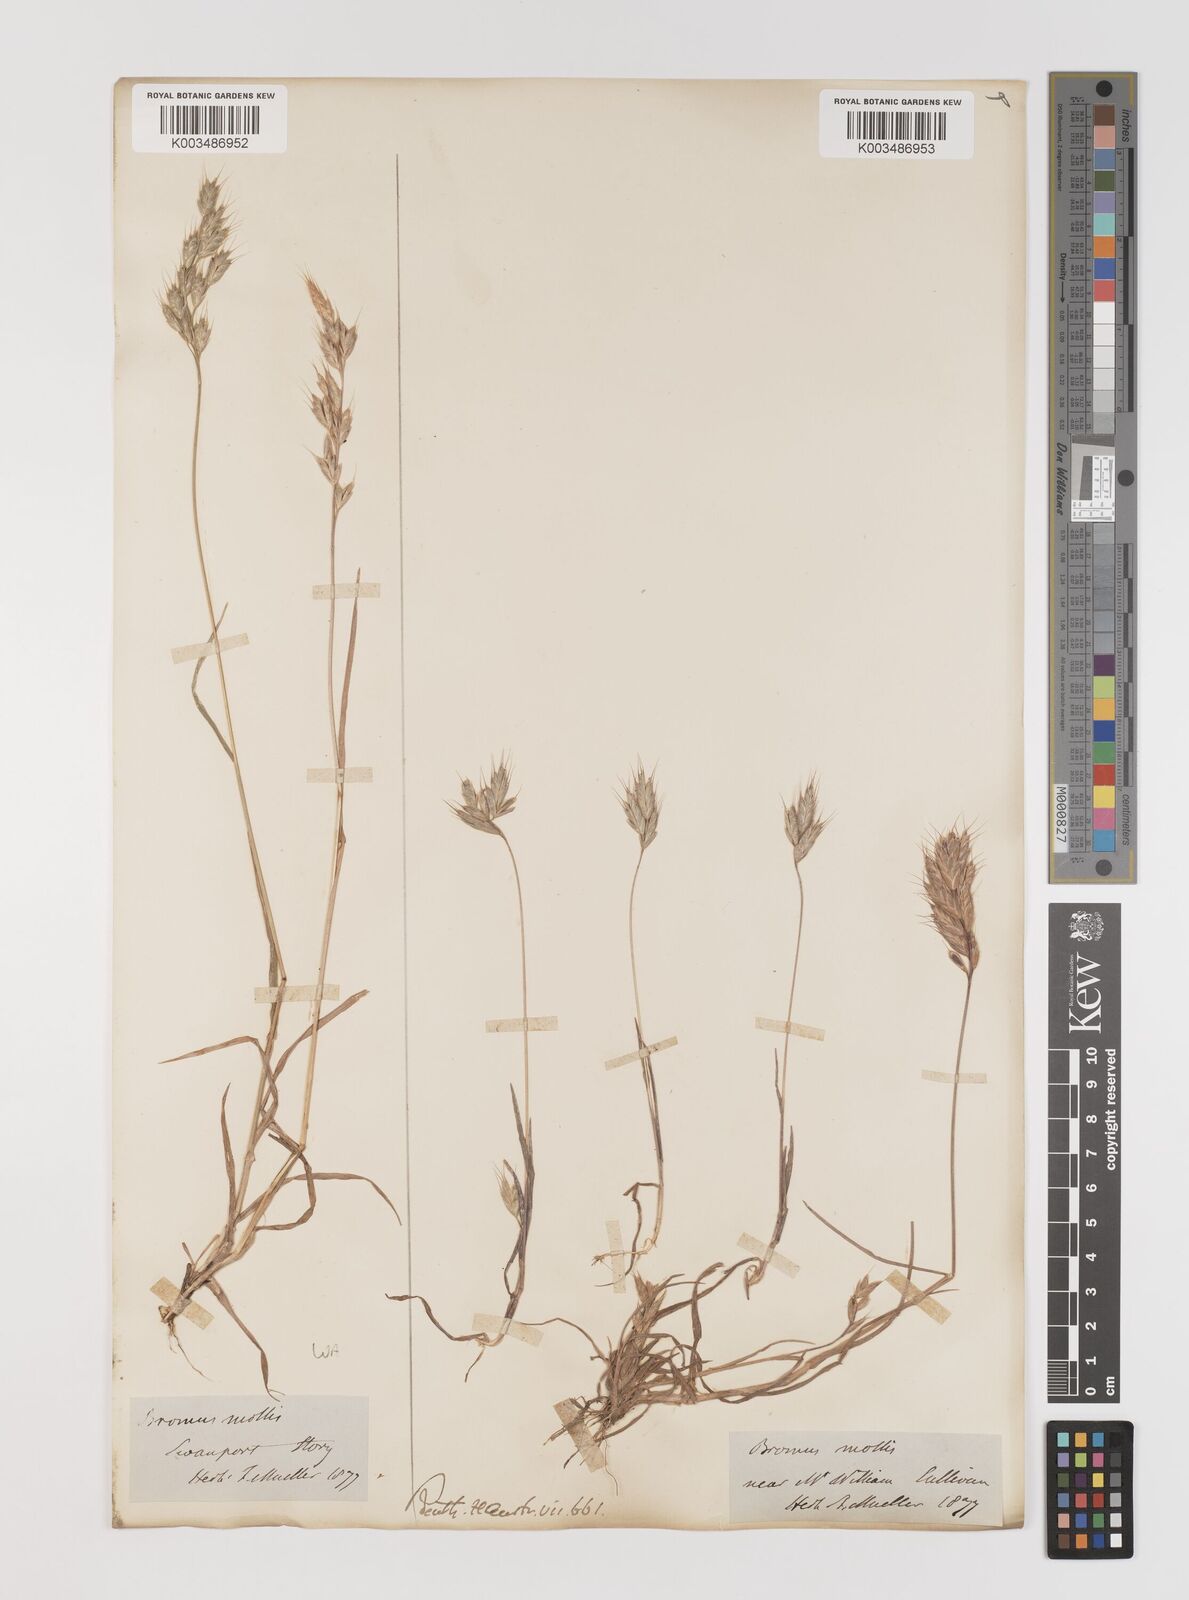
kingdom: Plantae
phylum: Tracheophyta
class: Liliopsida
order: Poales
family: Poaceae
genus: Bromus
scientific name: Bromus hordeaceus
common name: Soft brome
